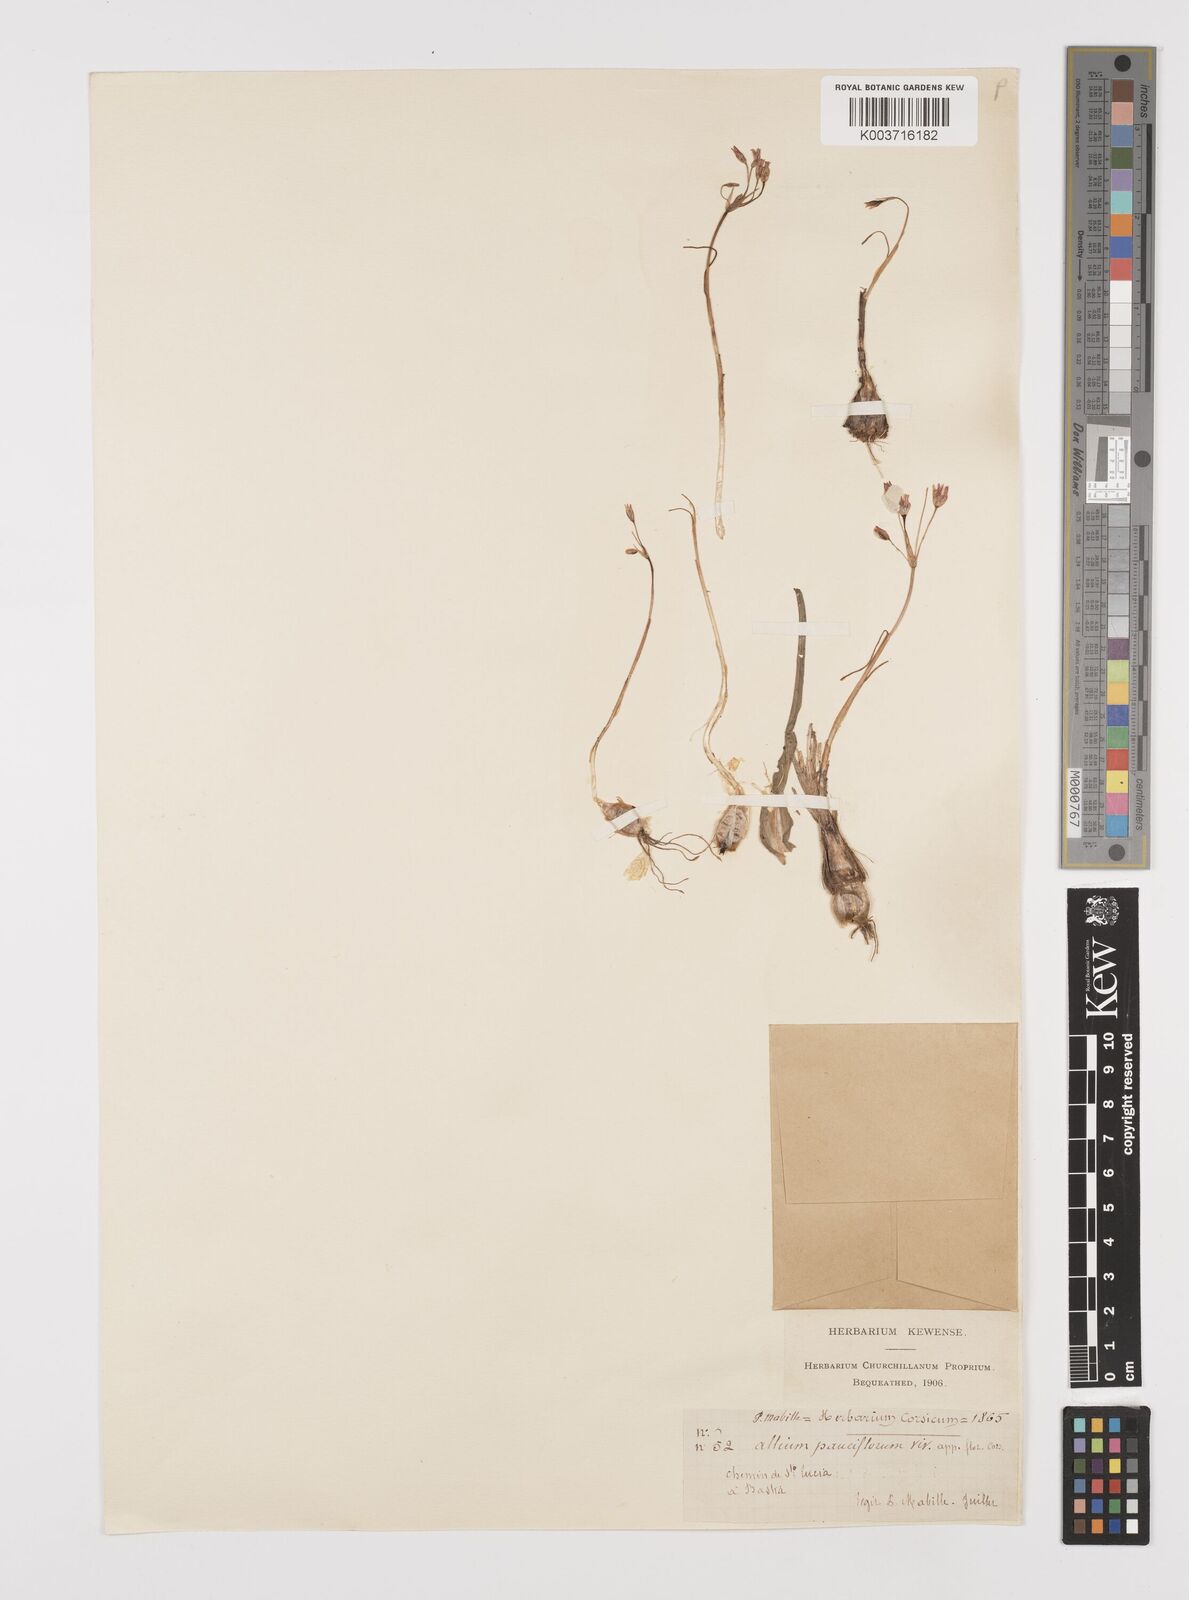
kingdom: Plantae
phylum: Tracheophyta
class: Liliopsida
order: Asparagales
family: Amaryllidaceae
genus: Allium
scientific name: Allium parciflorum
